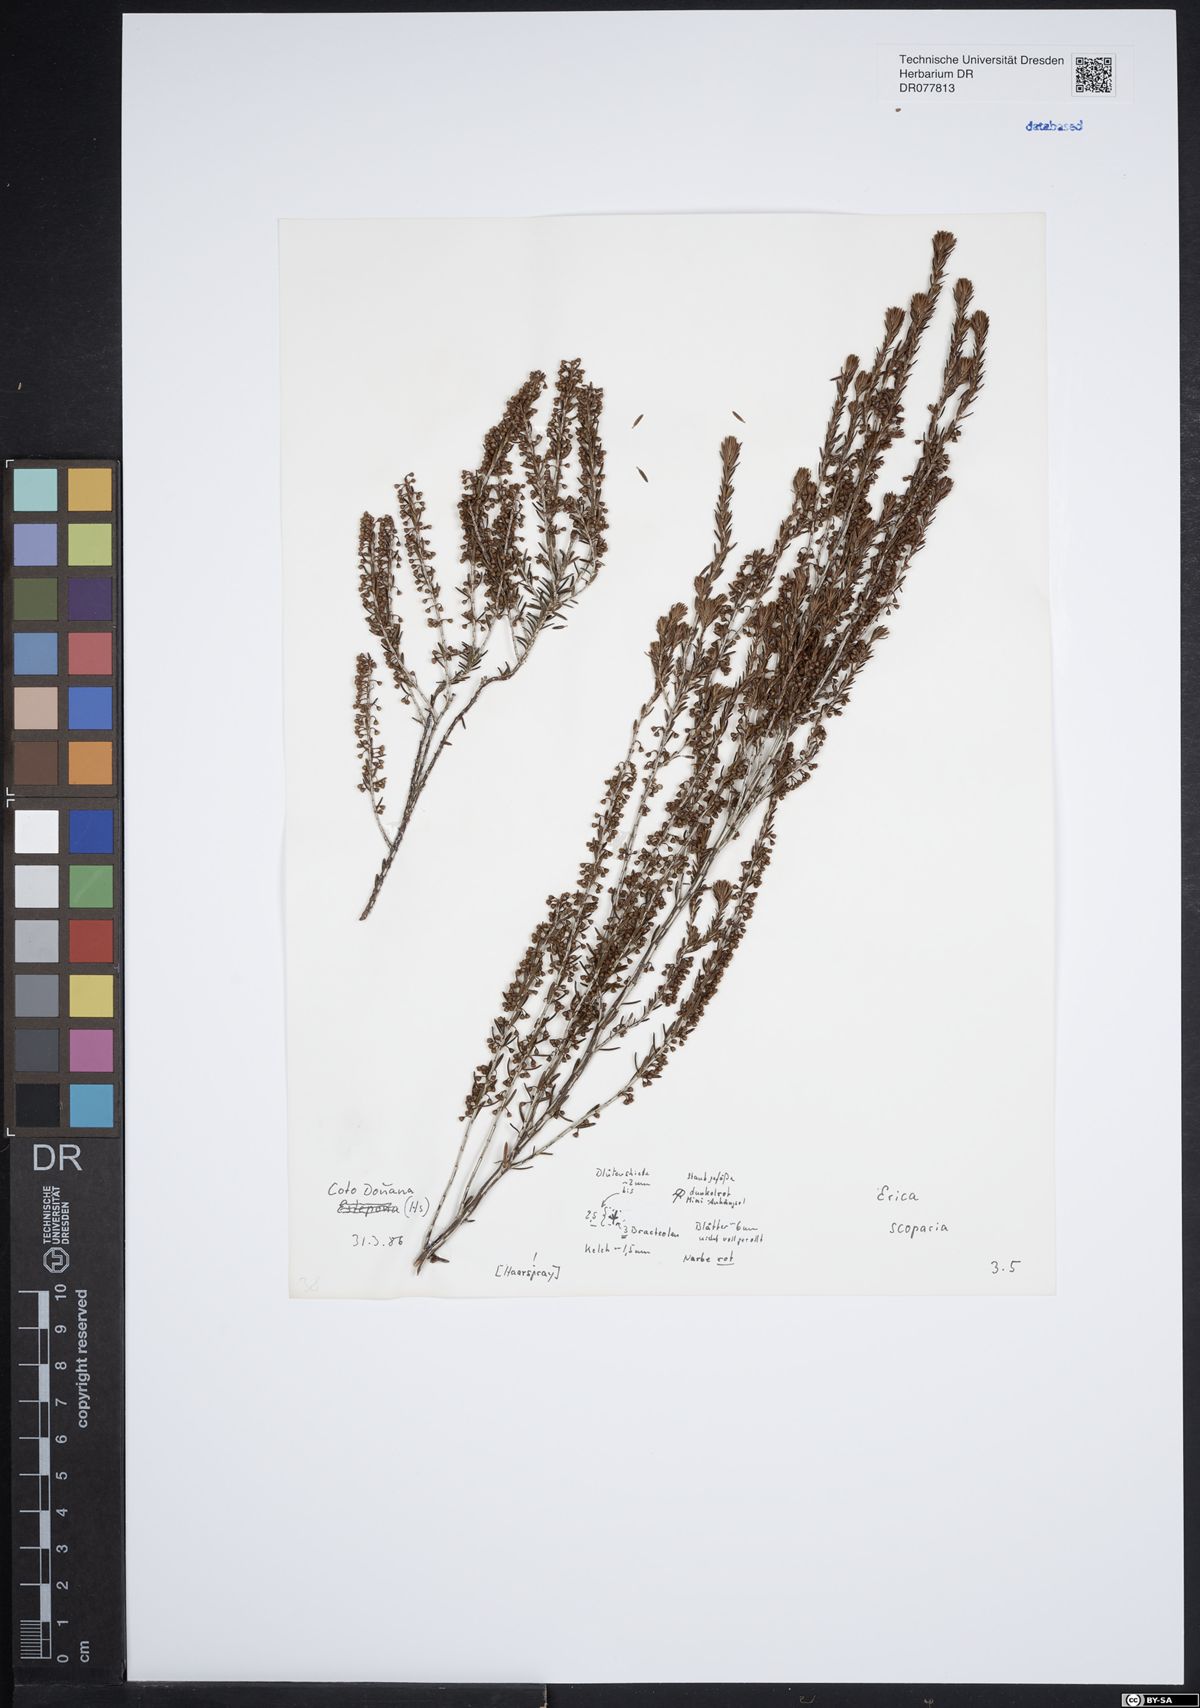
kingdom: Plantae
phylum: Tracheophyta
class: Magnoliopsida
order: Ericales
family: Ericaceae
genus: Erica
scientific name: Erica scoparia
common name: Green heather
